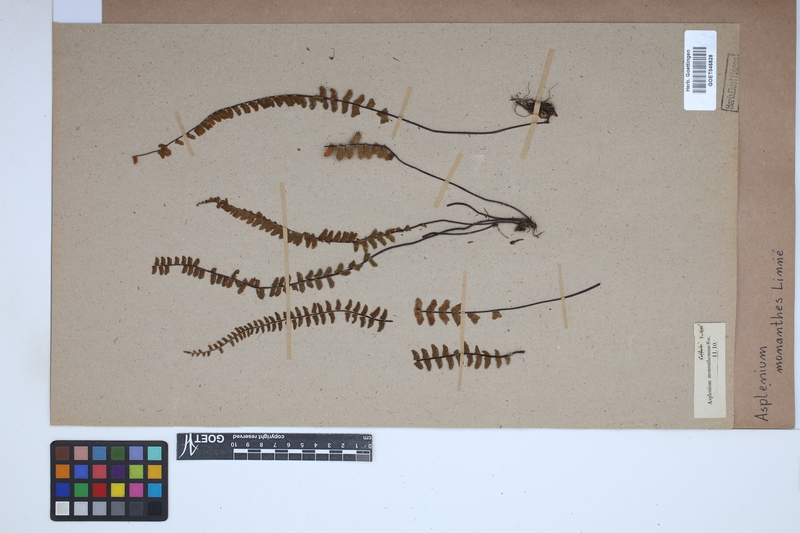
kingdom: Plantae
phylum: Tracheophyta
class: Polypodiopsida
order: Polypodiales
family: Aspleniaceae
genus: Asplenium
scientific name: Asplenium monanthes
